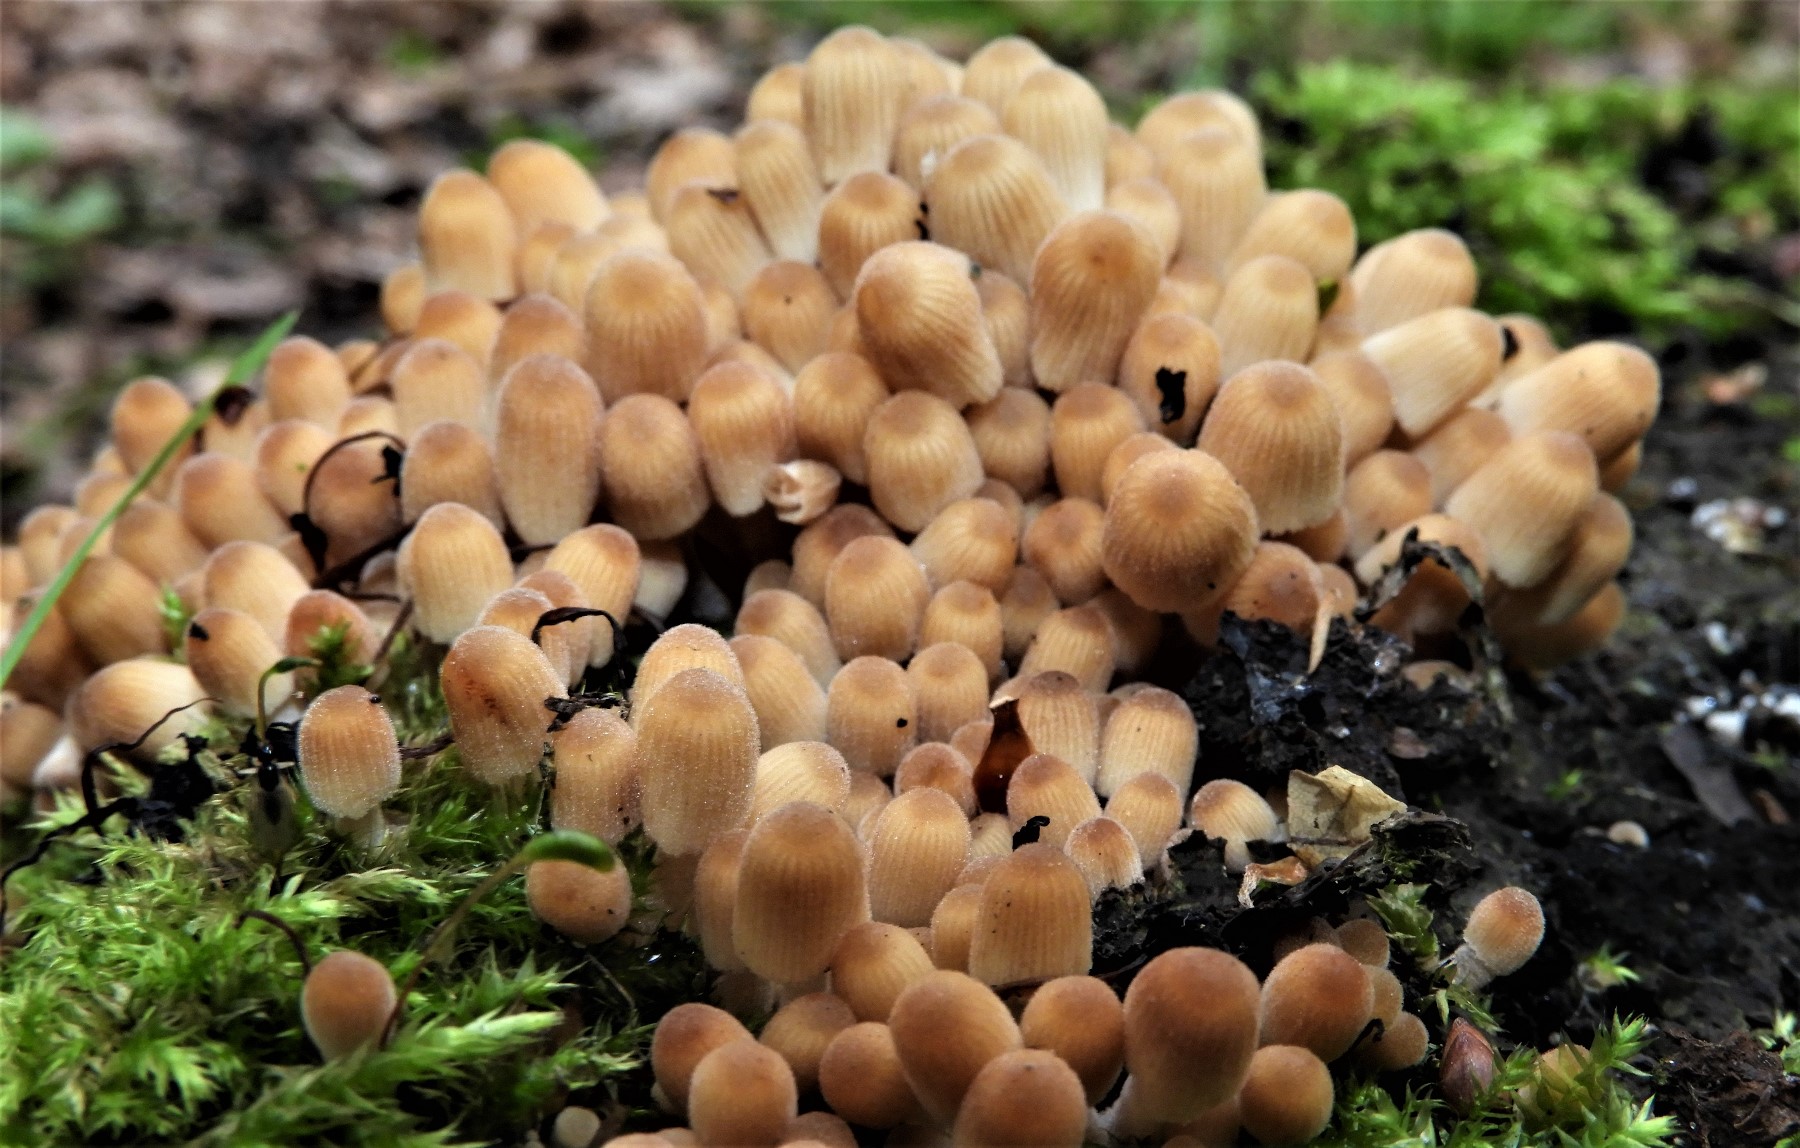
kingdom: Fungi
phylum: Basidiomycota
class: Agaricomycetes
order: Agaricales
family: Psathyrellaceae
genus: Coprinellus
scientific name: Coprinellus disseminatus
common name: bredsået blækhat
